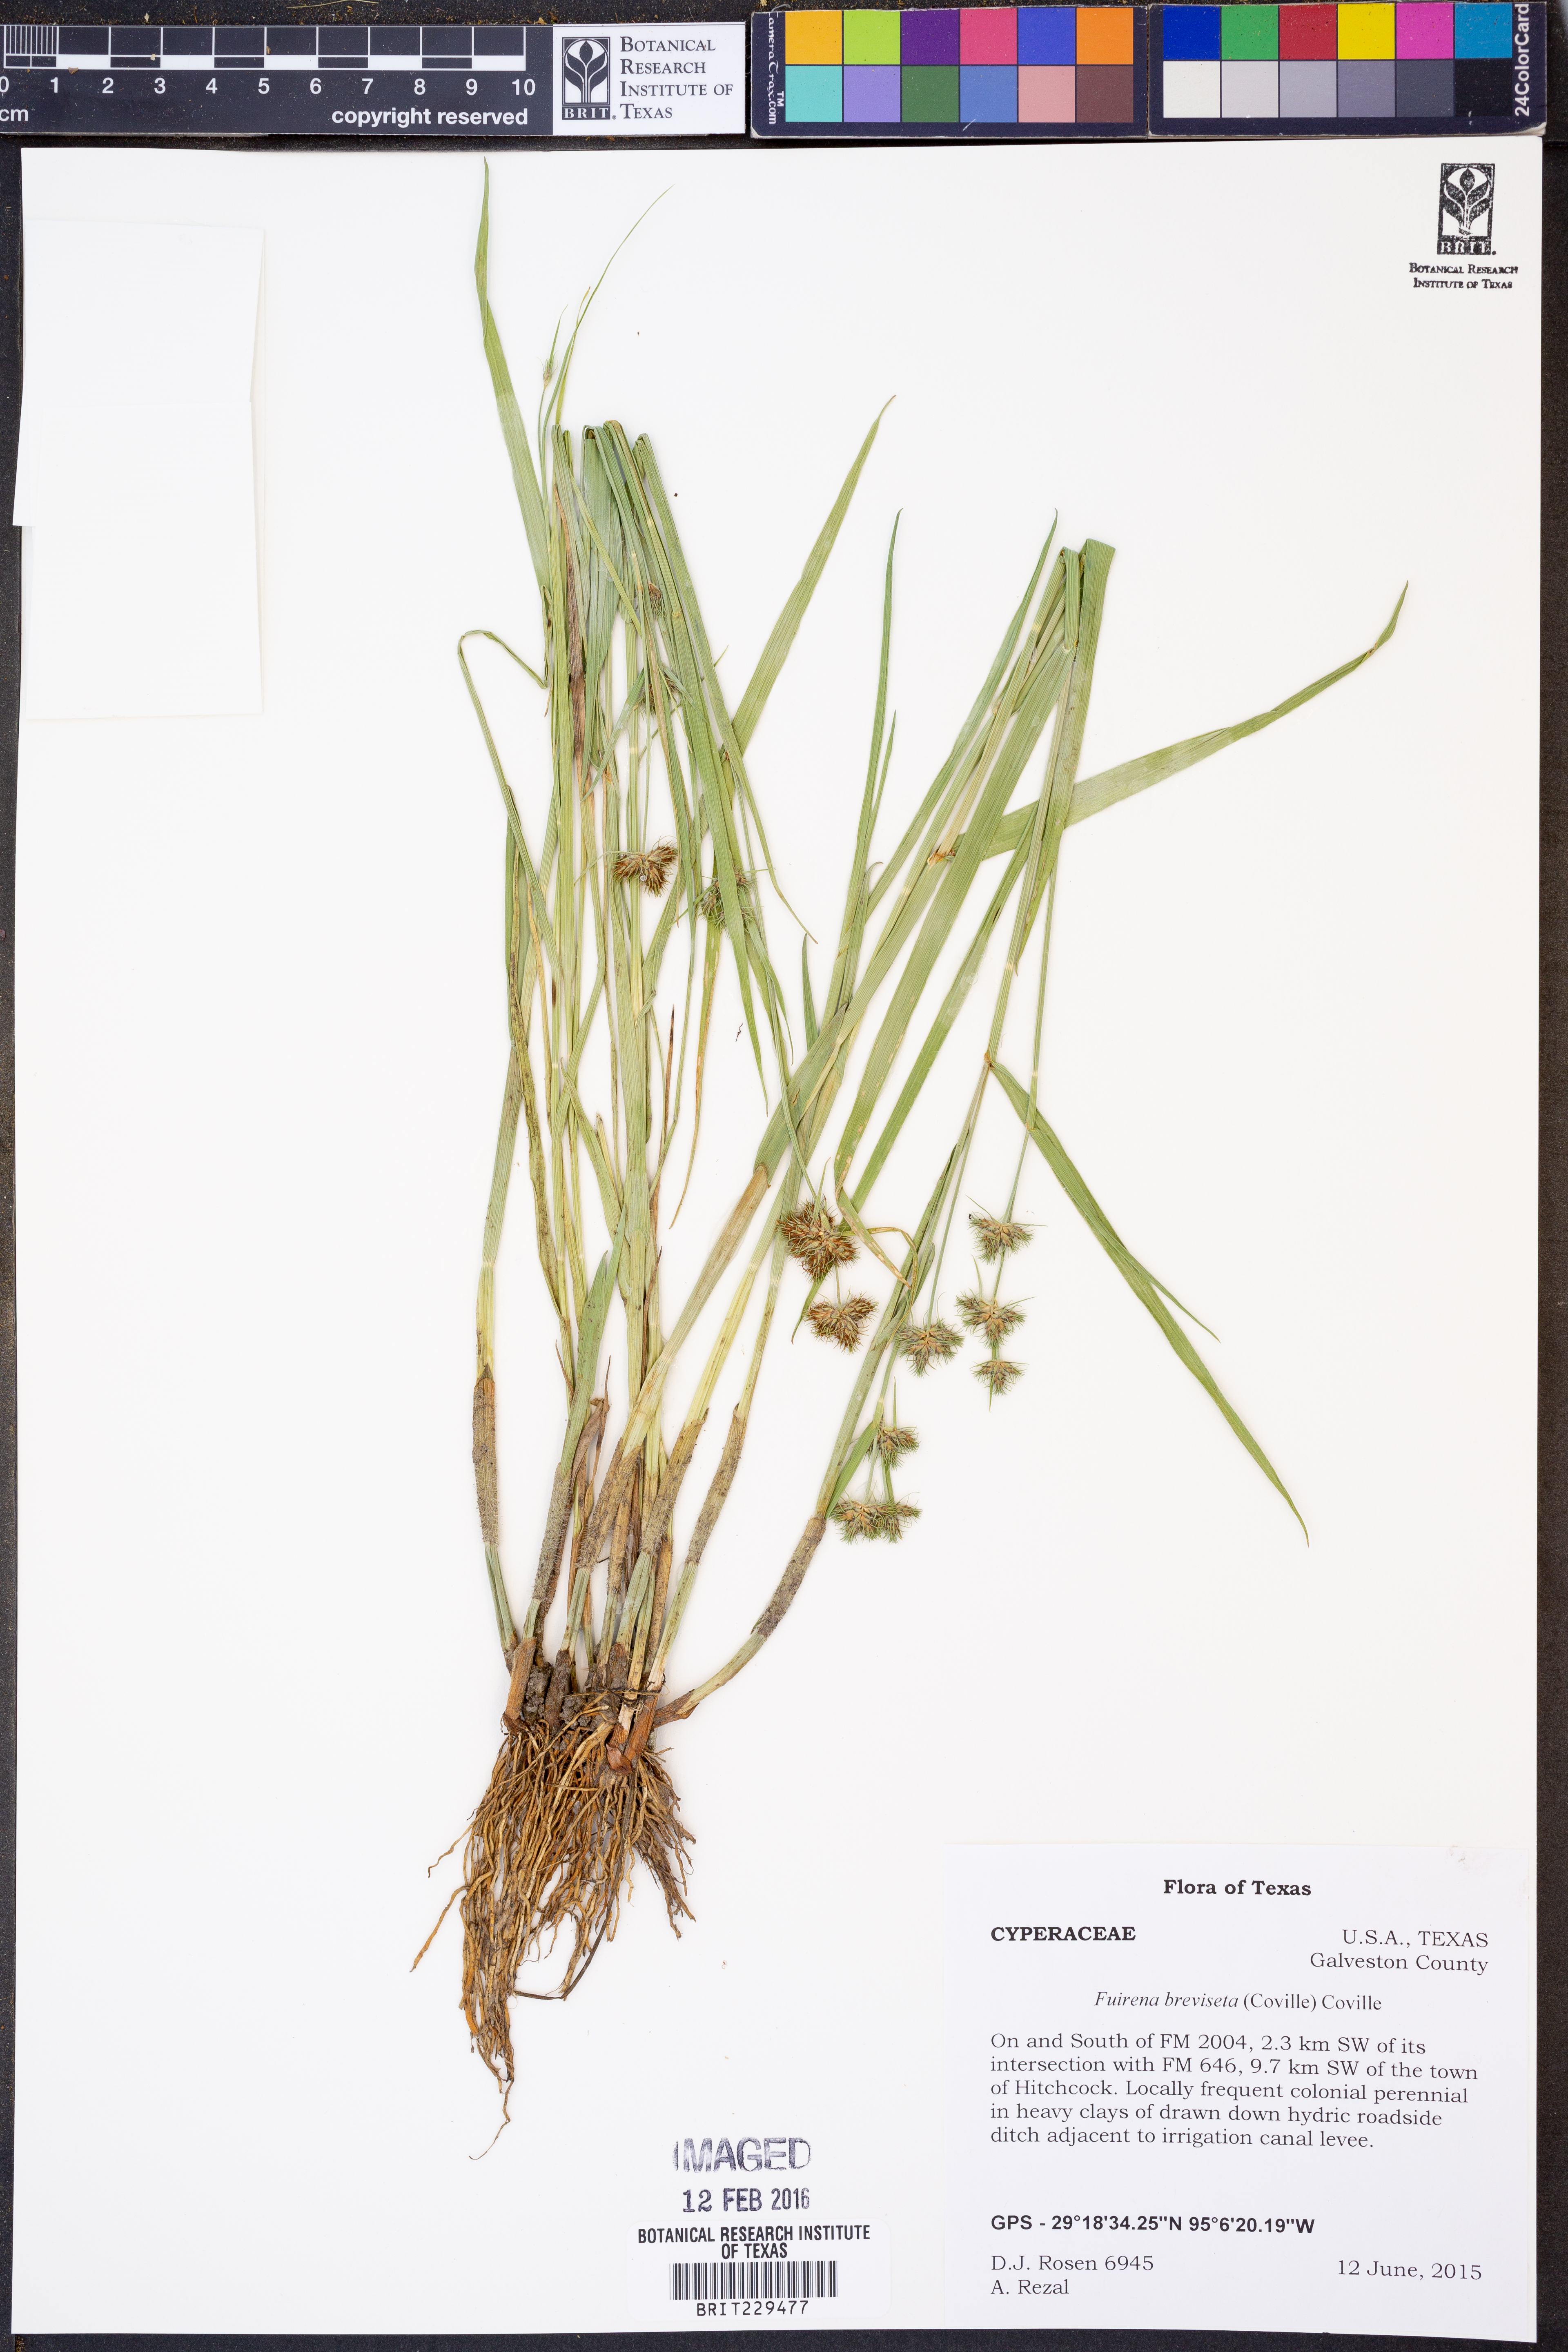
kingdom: Plantae
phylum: Tracheophyta
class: Liliopsida
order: Poales
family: Cyperaceae
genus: Fuirena
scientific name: Fuirena breviseta
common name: Saltmarsh umbrella sedge
